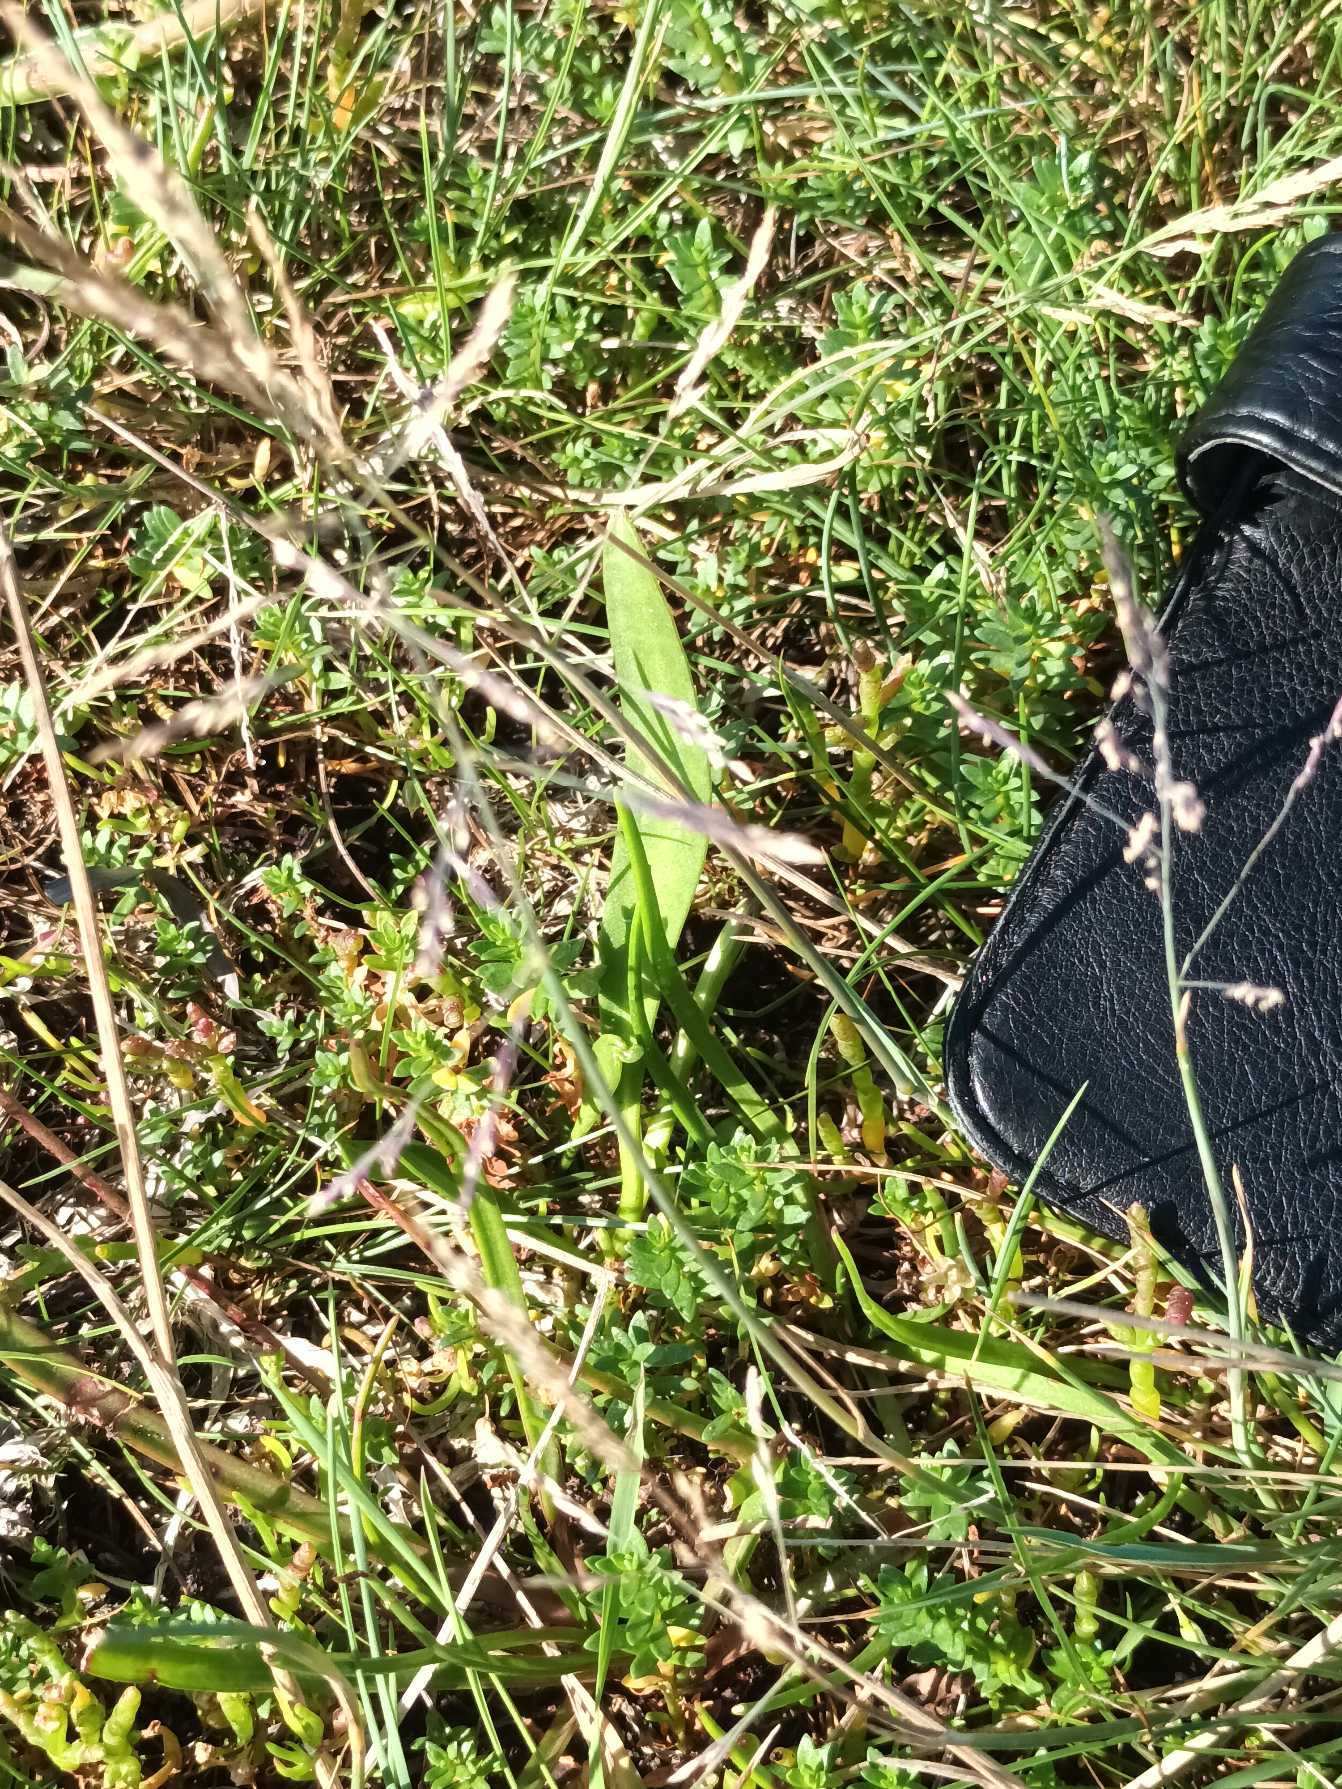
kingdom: Plantae
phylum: Tracheophyta
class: Liliopsida
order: Poales
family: Poaceae
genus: Puccinellia
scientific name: Puccinellia distans
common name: Udspærret annelgræs
